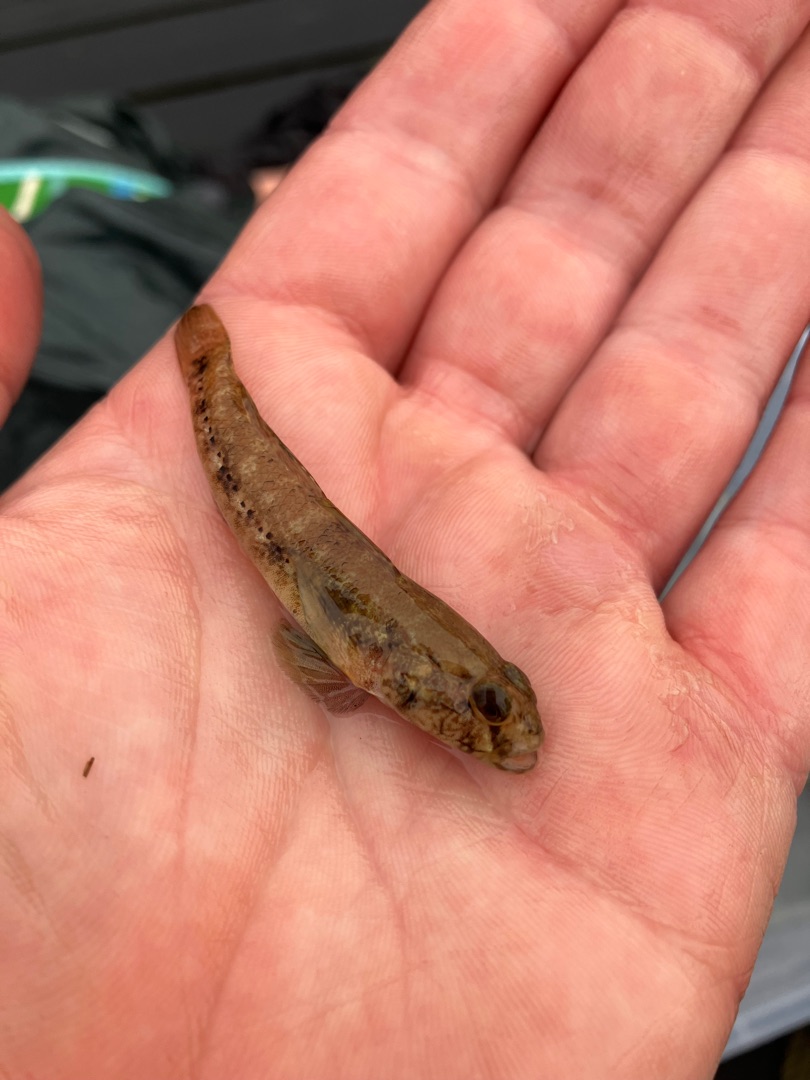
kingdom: Animalia
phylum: Chordata
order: Perciformes
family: Gobiidae
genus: Gobius
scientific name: Gobius niger
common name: Sortkutling
